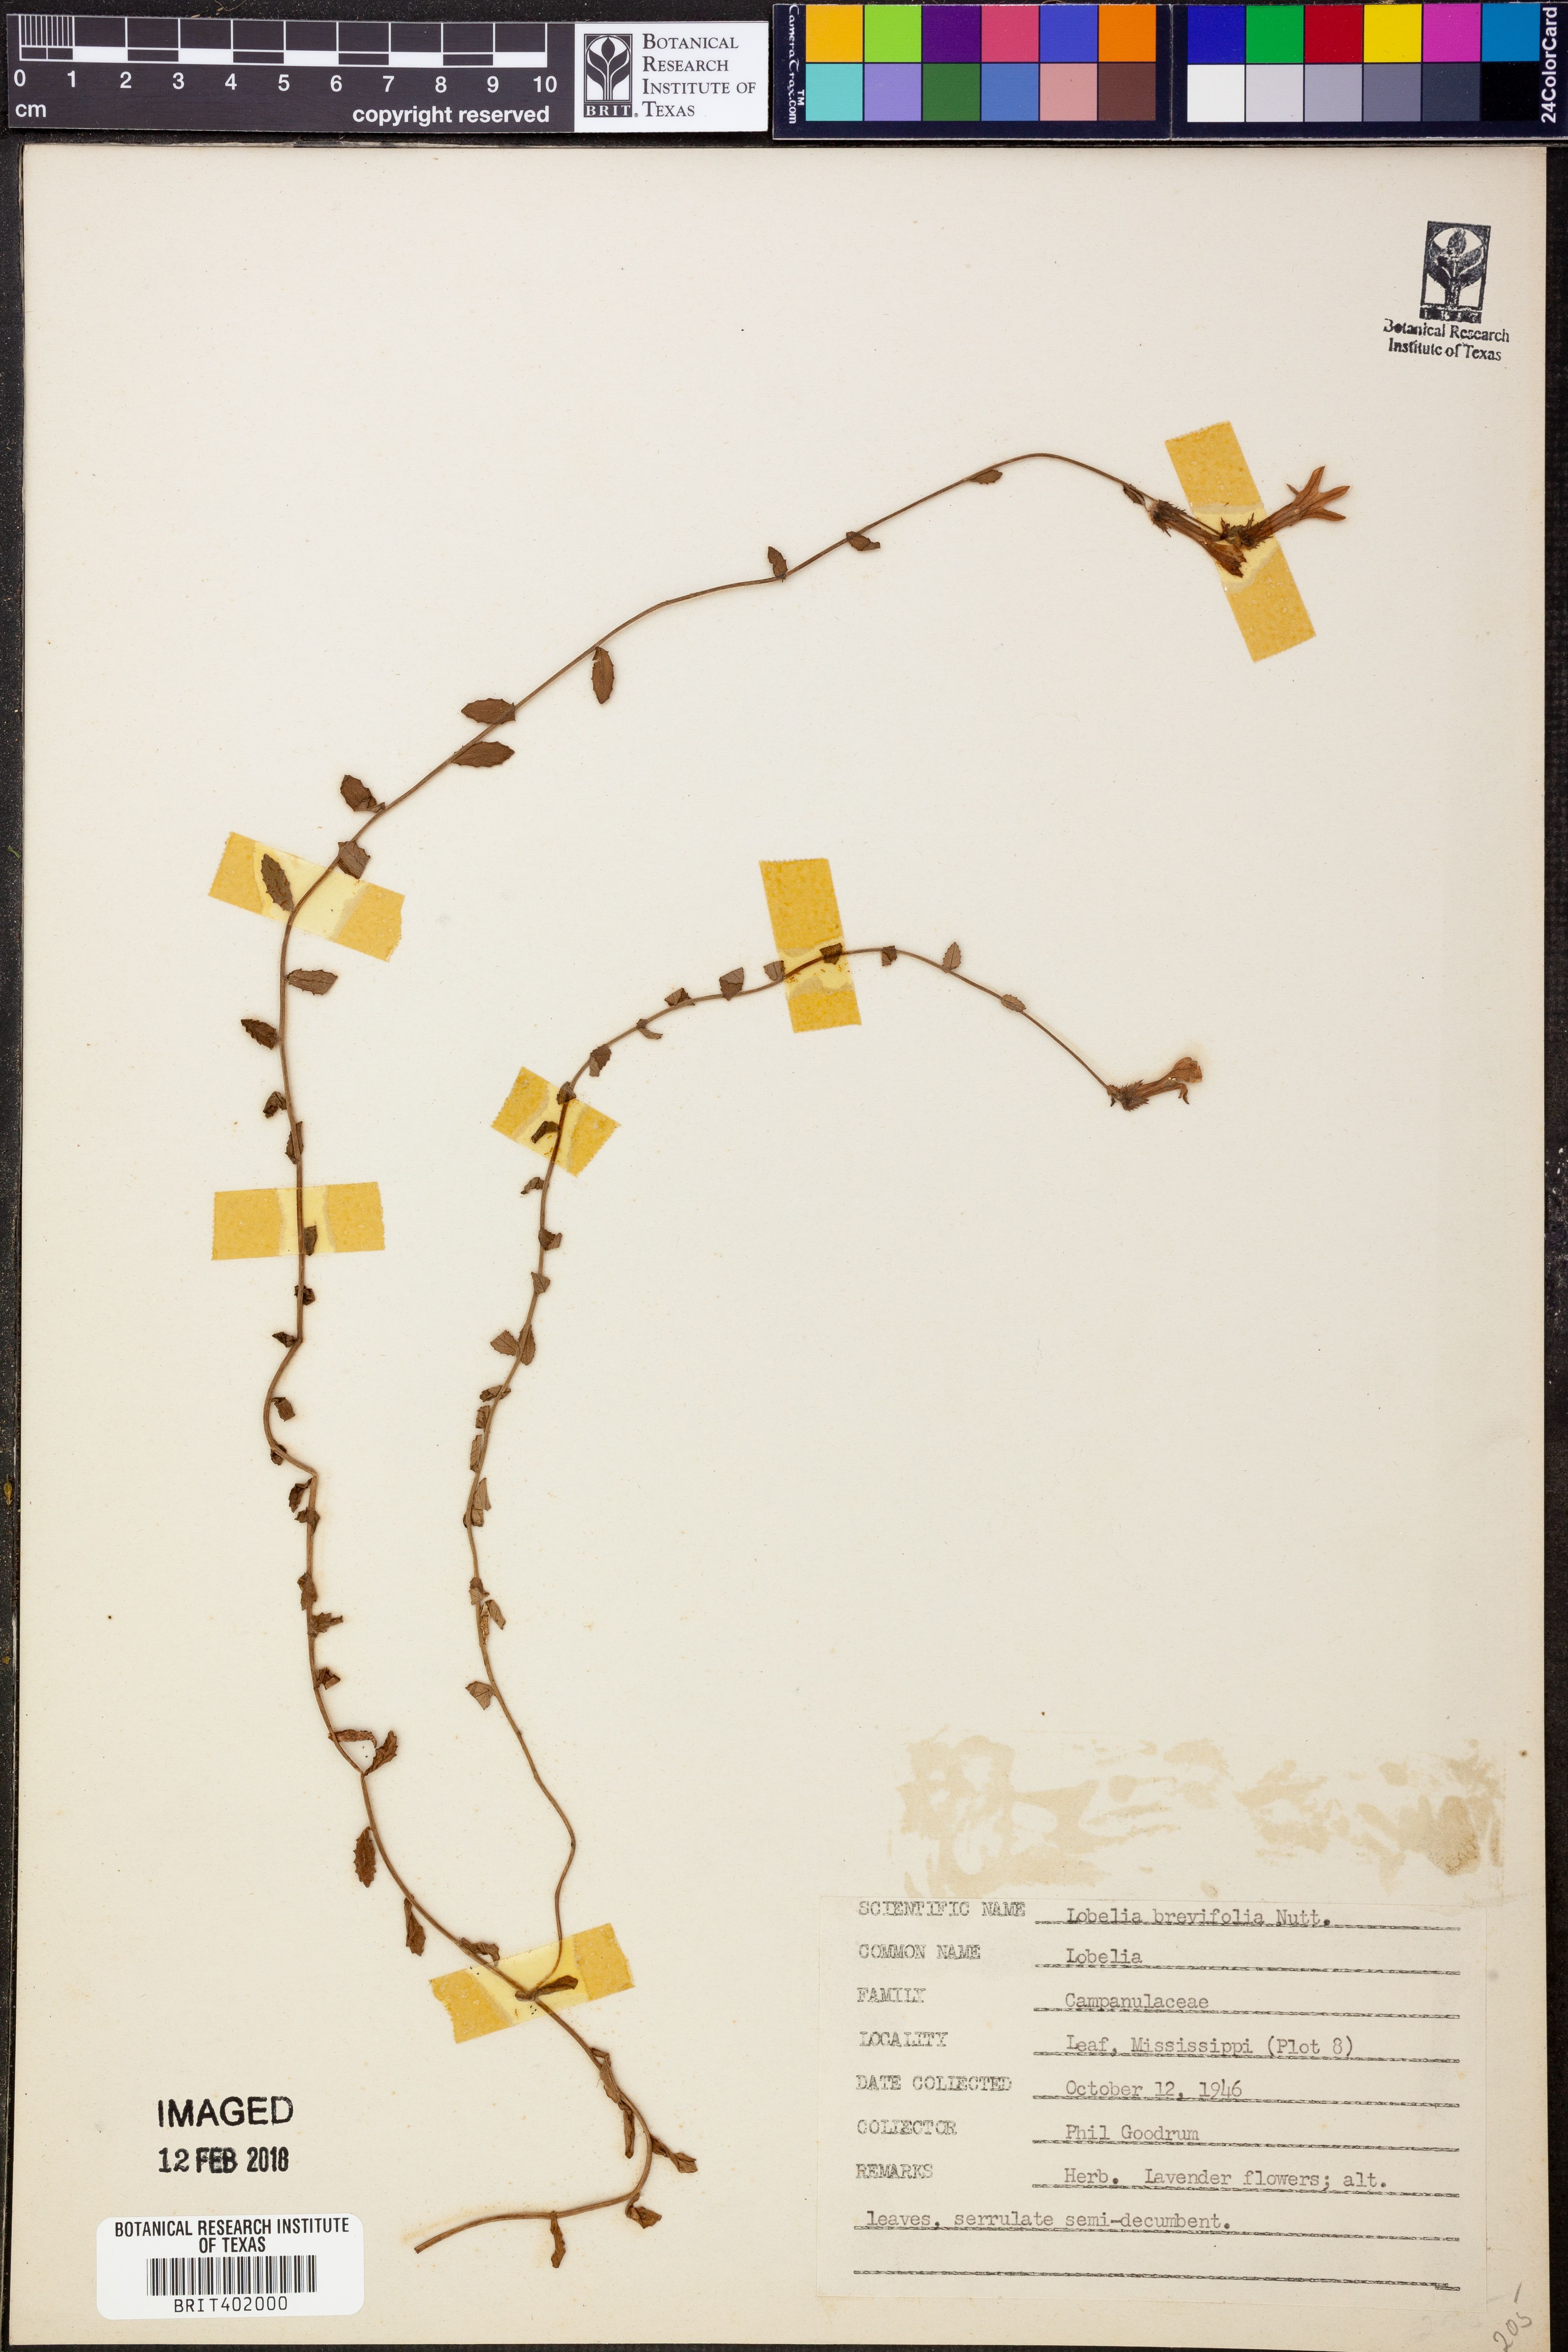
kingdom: Plantae
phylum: Tracheophyta
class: Magnoliopsida
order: Asterales
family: Campanulaceae
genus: Lobelia
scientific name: Lobelia brevifolia
